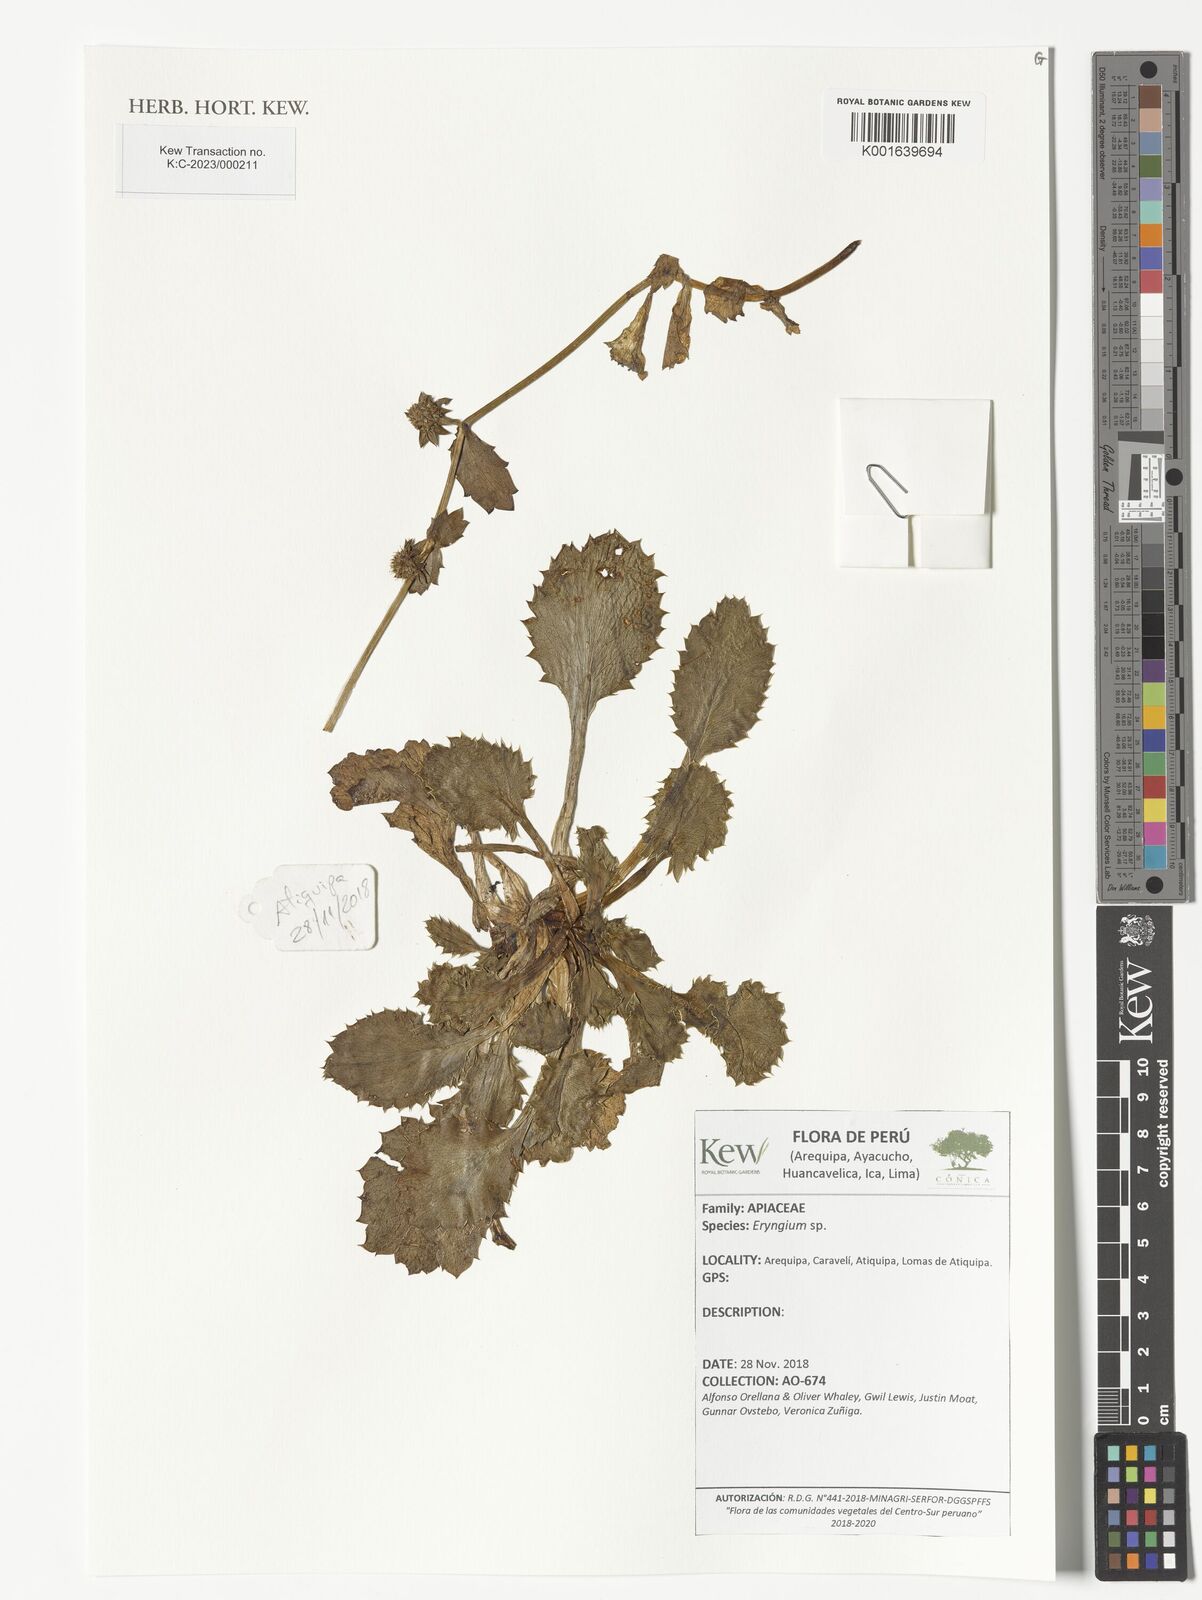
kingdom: Plantae
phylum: Tracheophyta
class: Magnoliopsida
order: Apiales
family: Apiaceae
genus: Eryngium
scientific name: Eryngium
